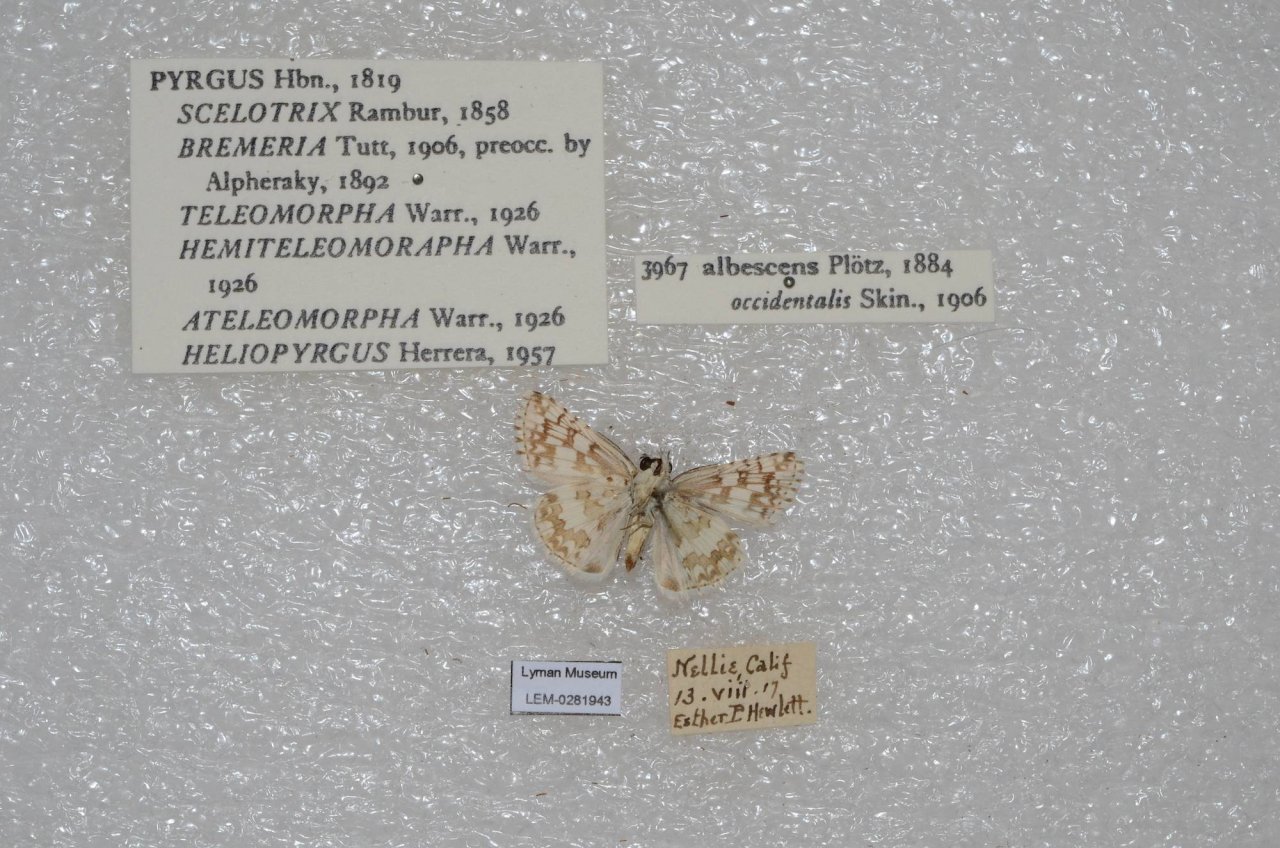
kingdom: Animalia
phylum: Arthropoda
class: Insecta
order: Lepidoptera
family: Hesperiidae
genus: Pyrgus
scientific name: Pyrgus communis
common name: White Checkered-Skipper
